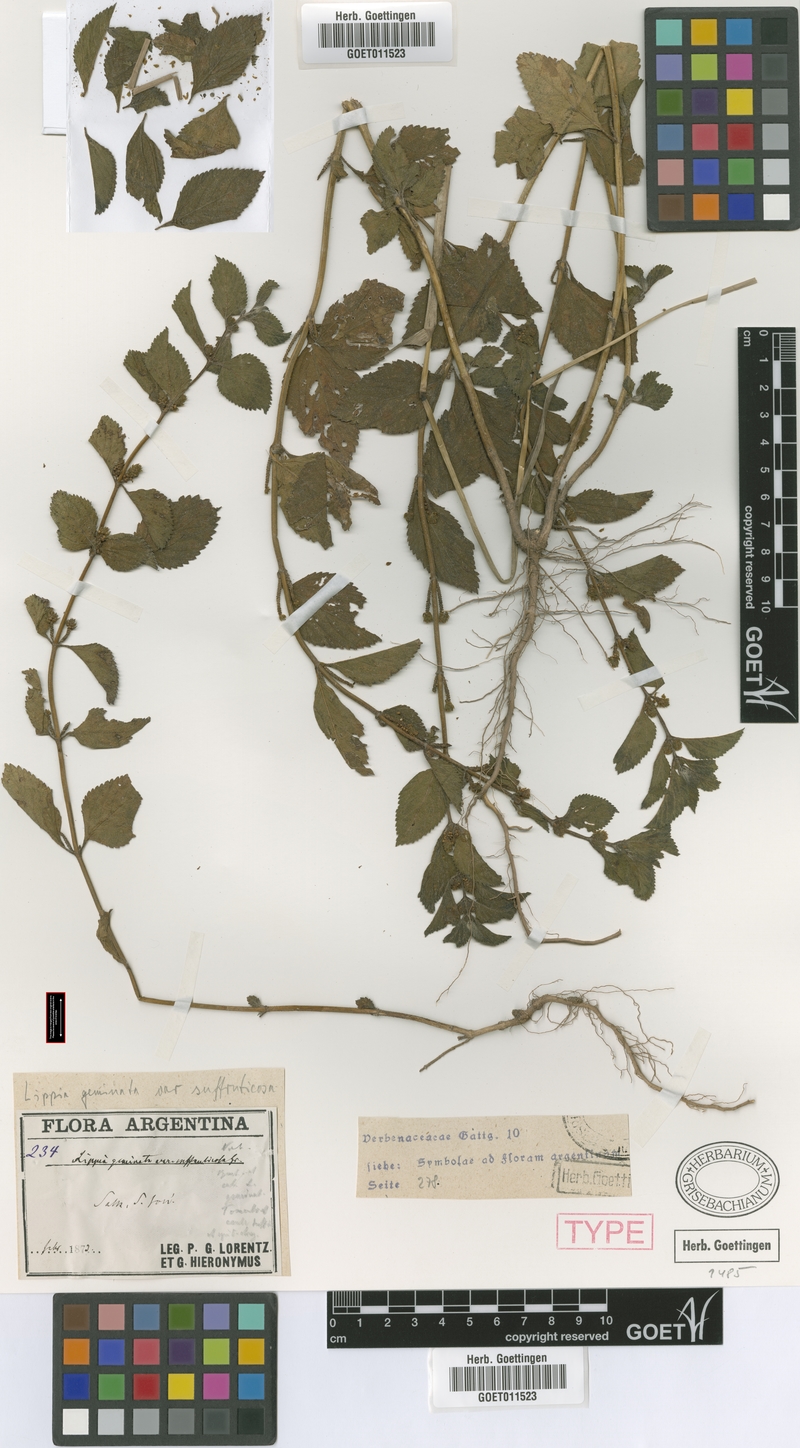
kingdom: Plantae
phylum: Tracheophyta
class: Magnoliopsida
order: Lamiales
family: Verbenaceae
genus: Lippia
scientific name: Lippia suffruticosa
